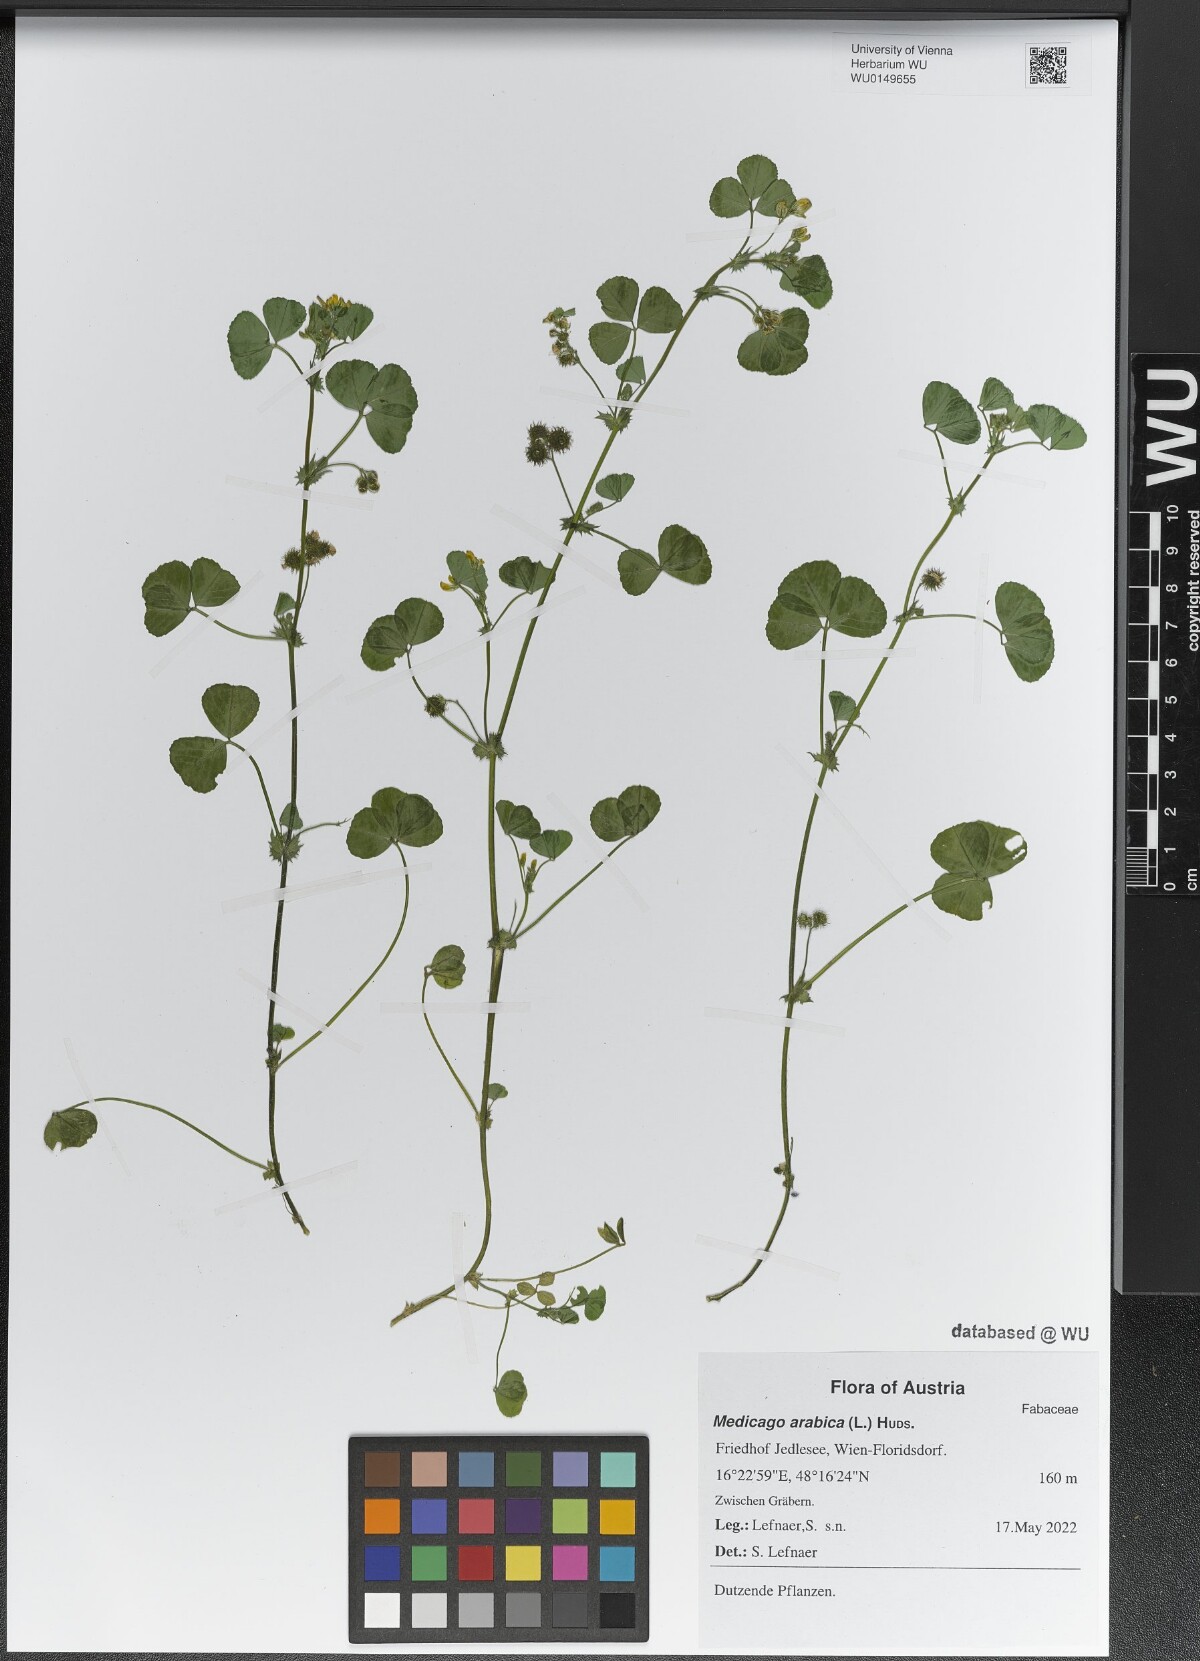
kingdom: Plantae
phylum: Tracheophyta
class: Magnoliopsida
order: Fabales
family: Fabaceae
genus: Medicago
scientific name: Medicago arabica
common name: Spotted medick
